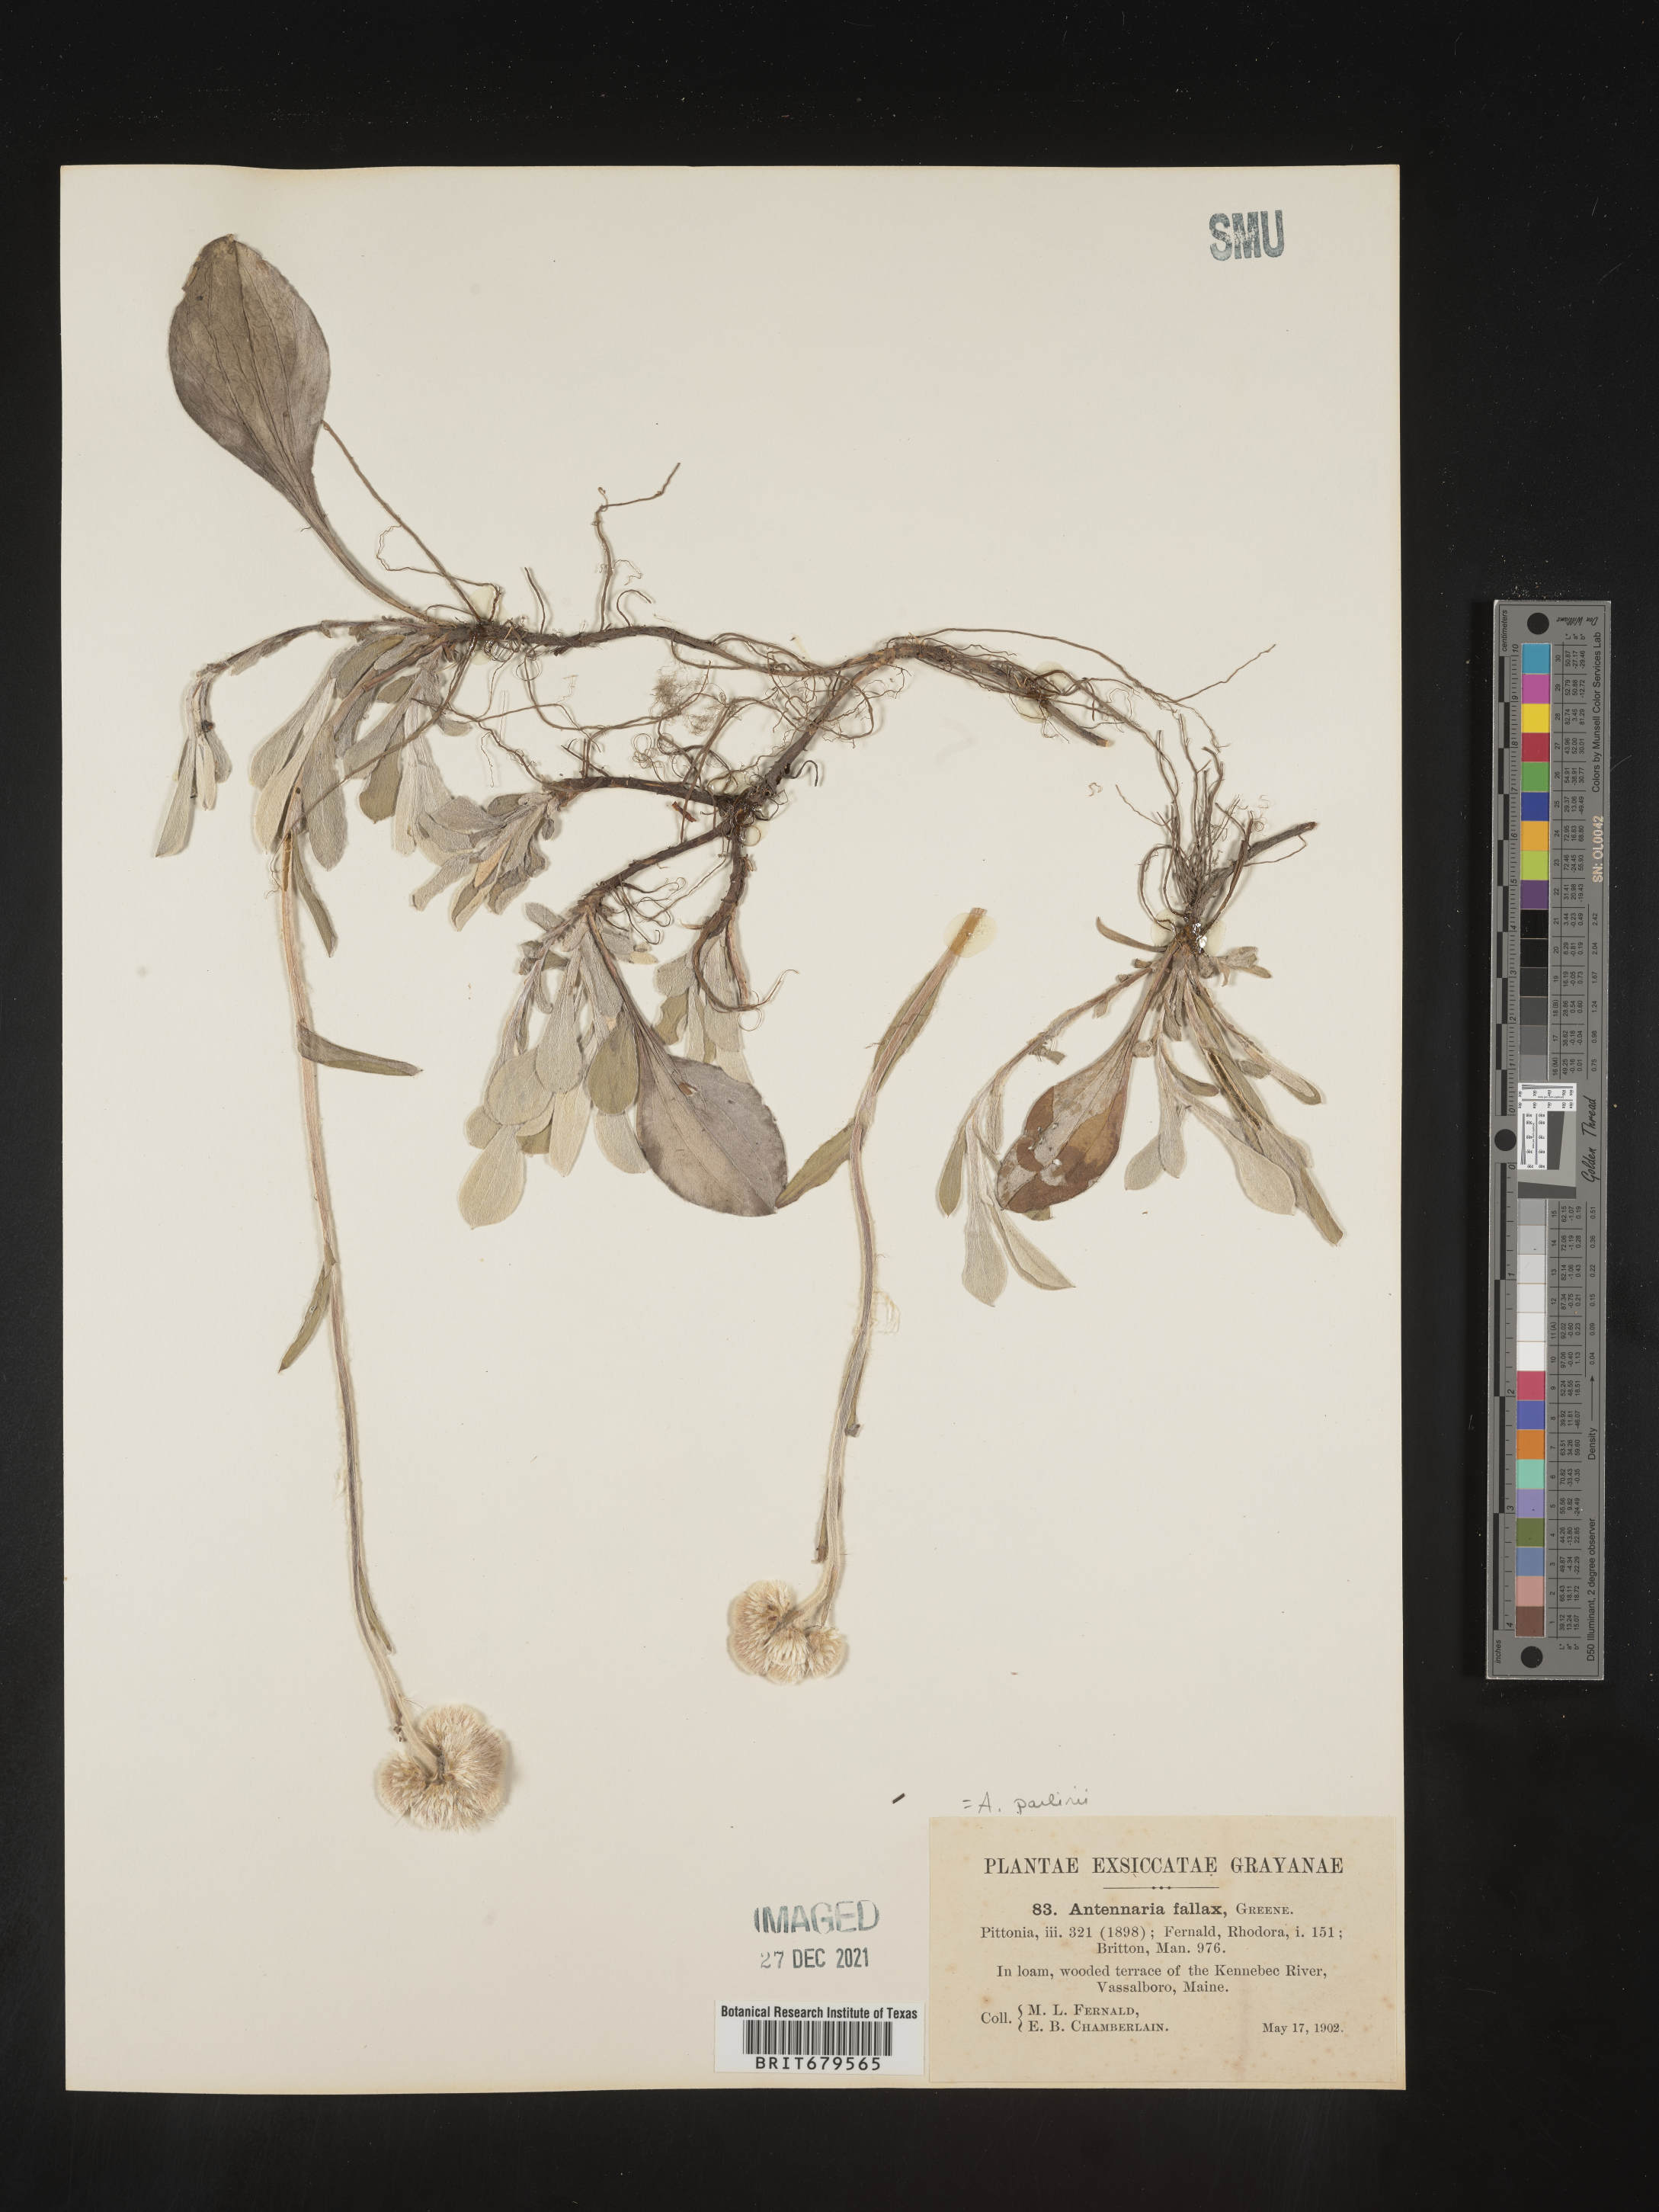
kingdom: Plantae
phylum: Tracheophyta
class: Magnoliopsida
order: Asterales
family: Asteraceae
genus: Antennaria
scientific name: Antennaria parlinii
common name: Parlin's pussytoes
